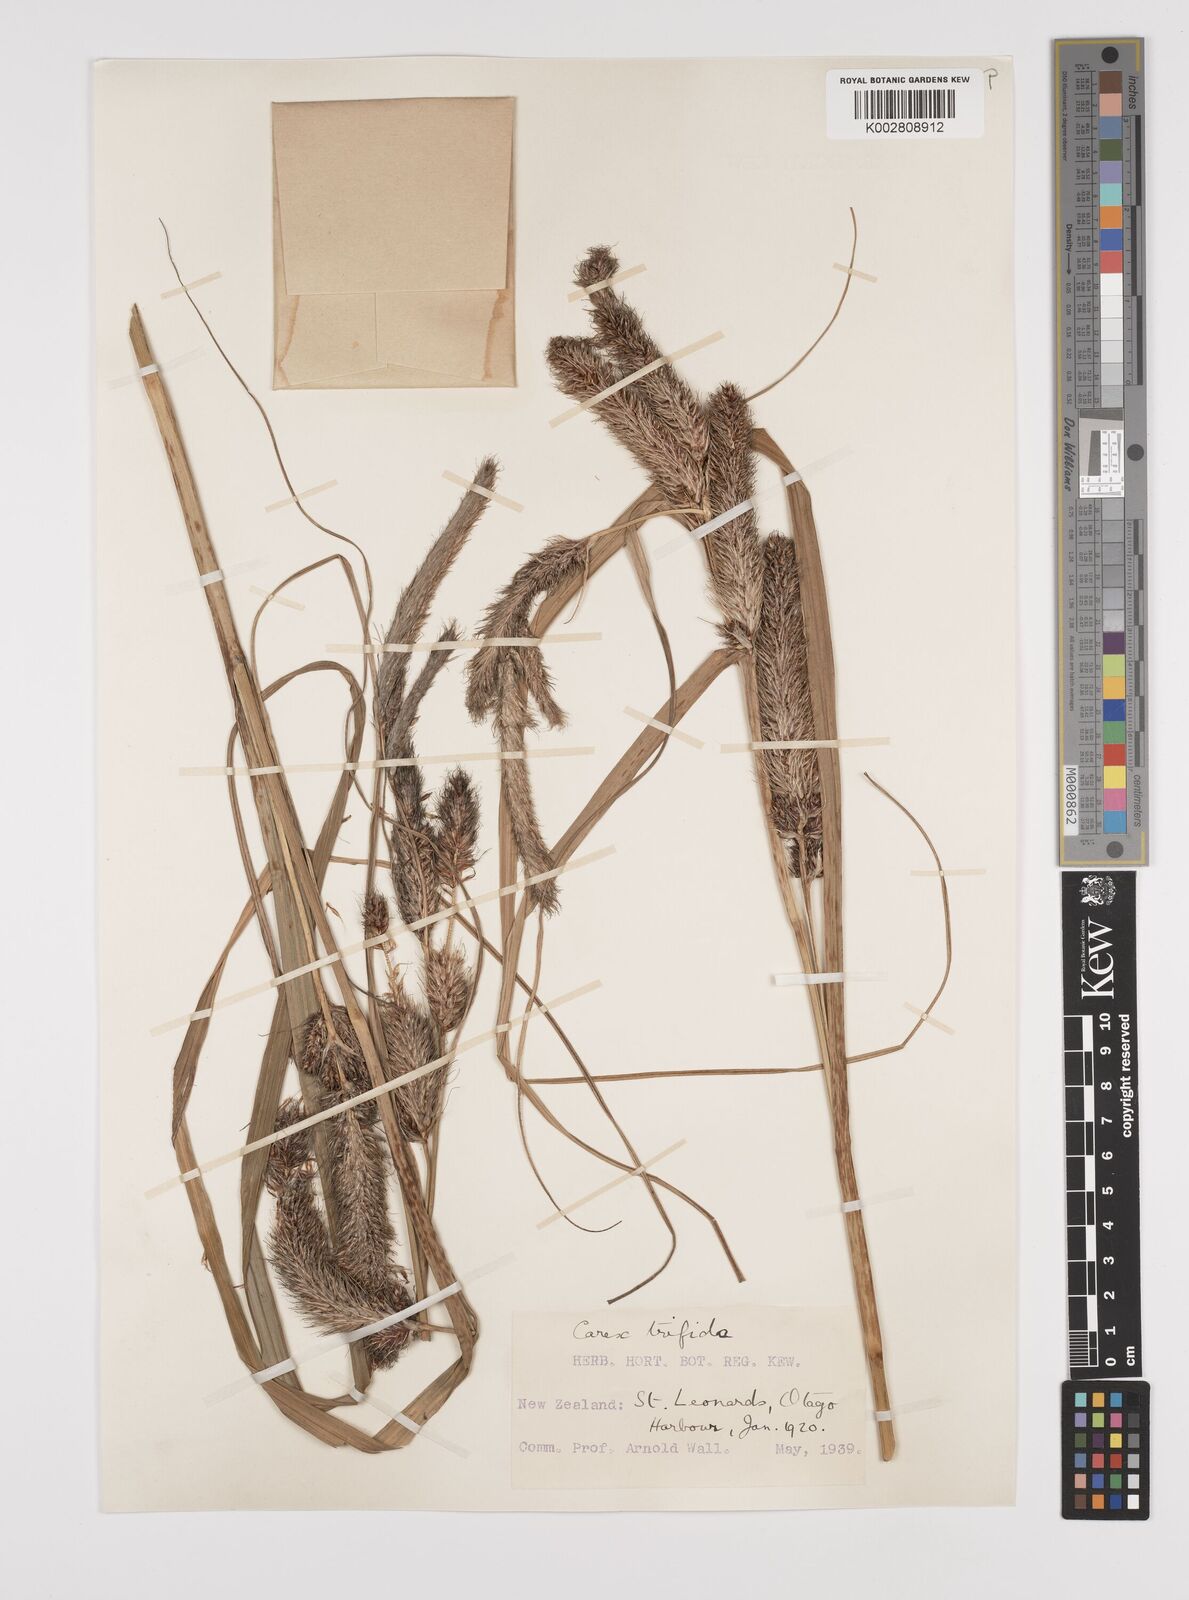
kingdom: Plantae
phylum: Tracheophyta
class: Liliopsida
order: Poales
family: Cyperaceae
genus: Carex
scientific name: Carex trifida
